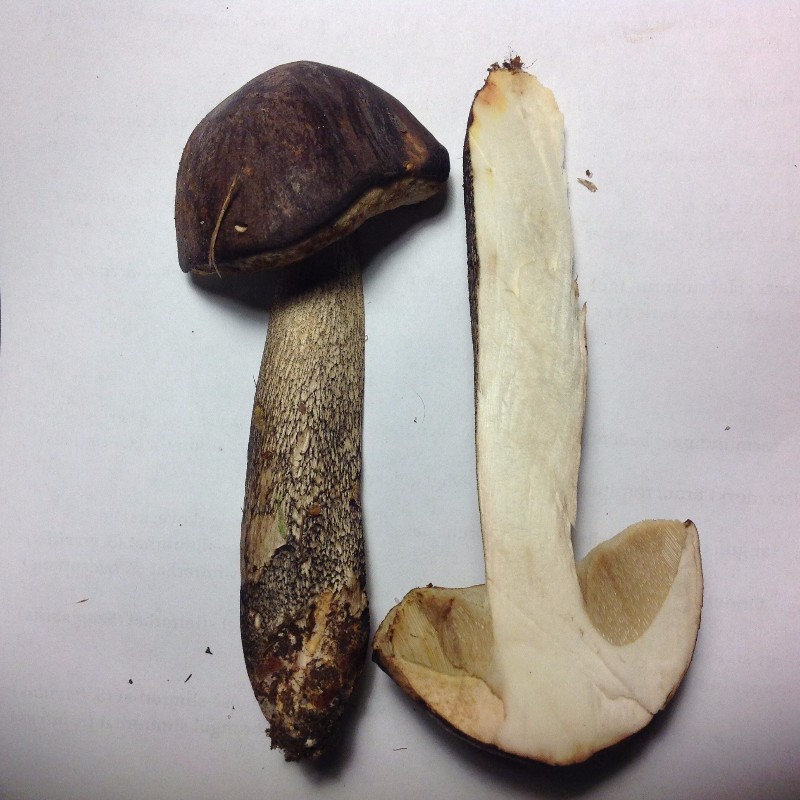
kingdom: Fungi
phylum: Basidiomycota
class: Agaricomycetes
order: Boletales
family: Boletaceae
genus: Leccinum
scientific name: Leccinum melaneum
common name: mørk skælrørhat
